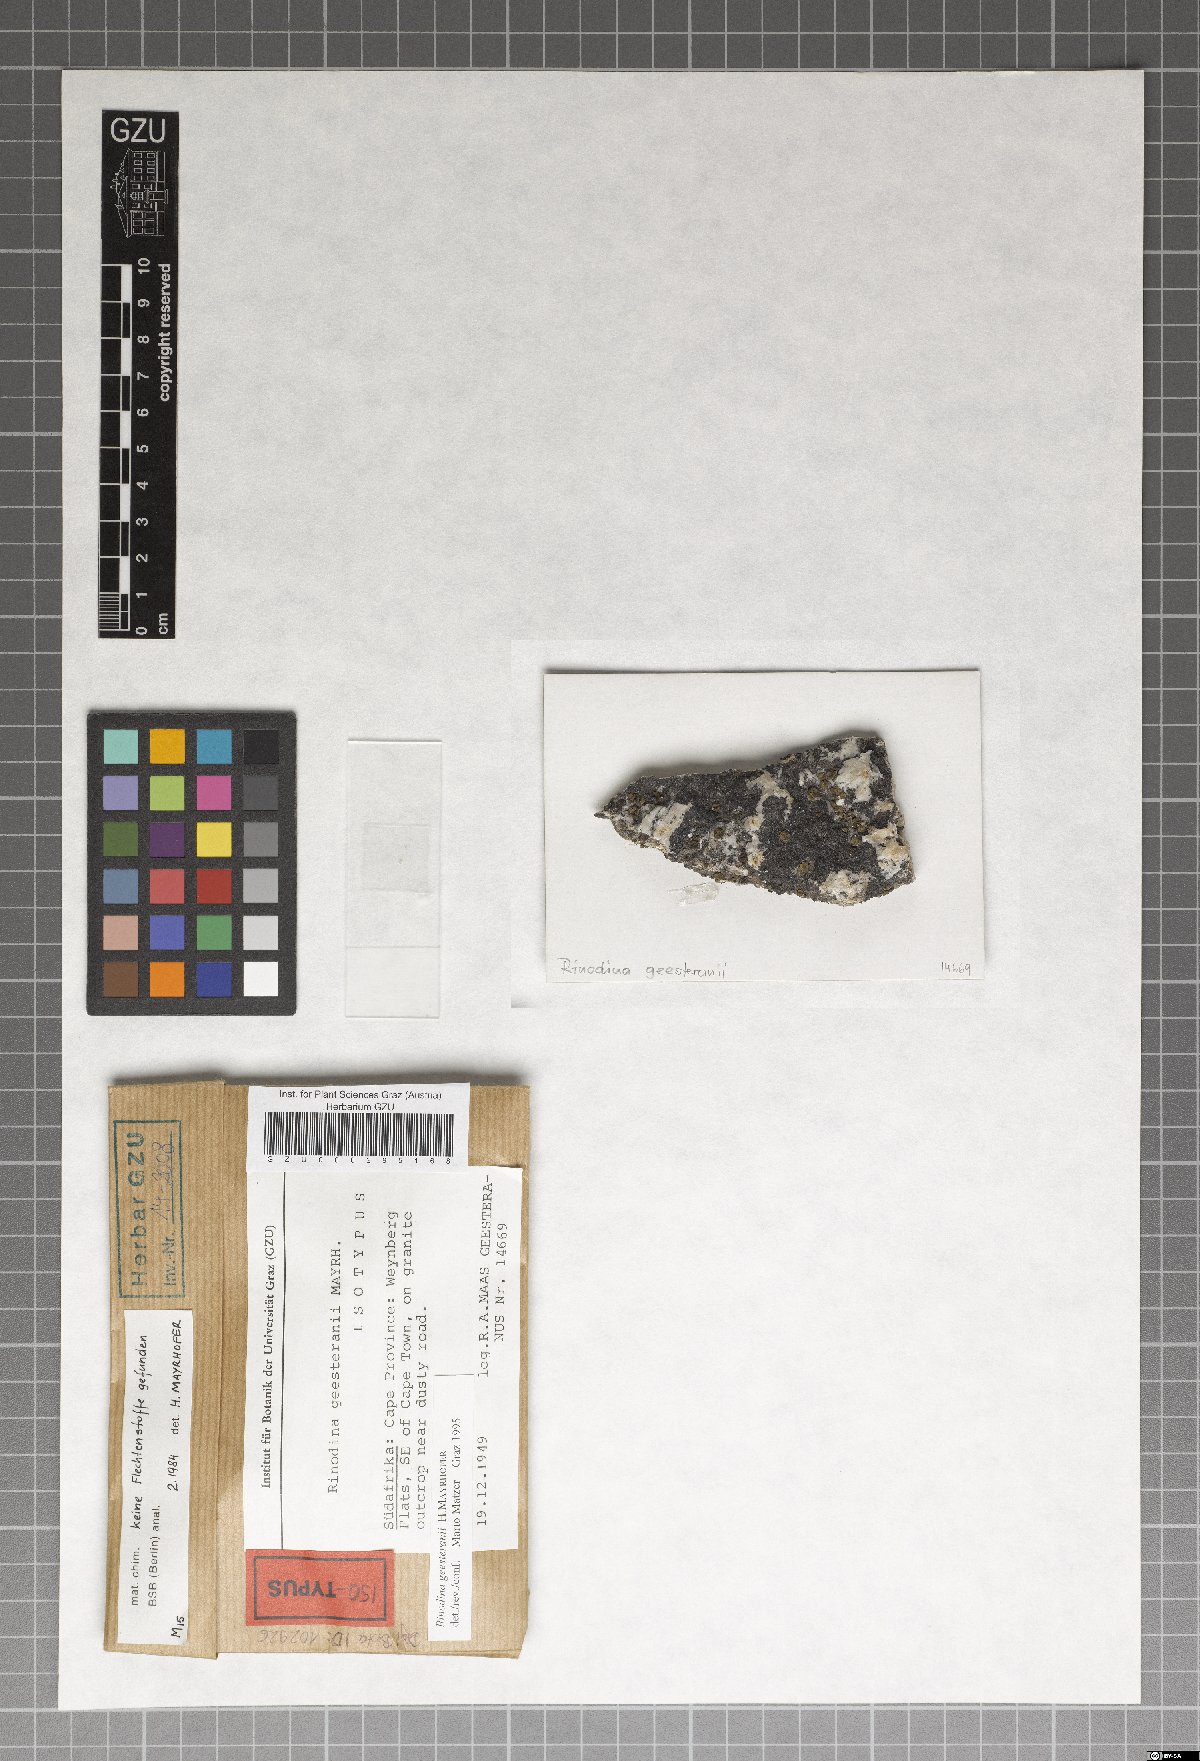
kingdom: Fungi
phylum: Ascomycota
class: Lecanoromycetes
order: Caliciales
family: Physciaceae
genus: Rinodina
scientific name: Rinodina
